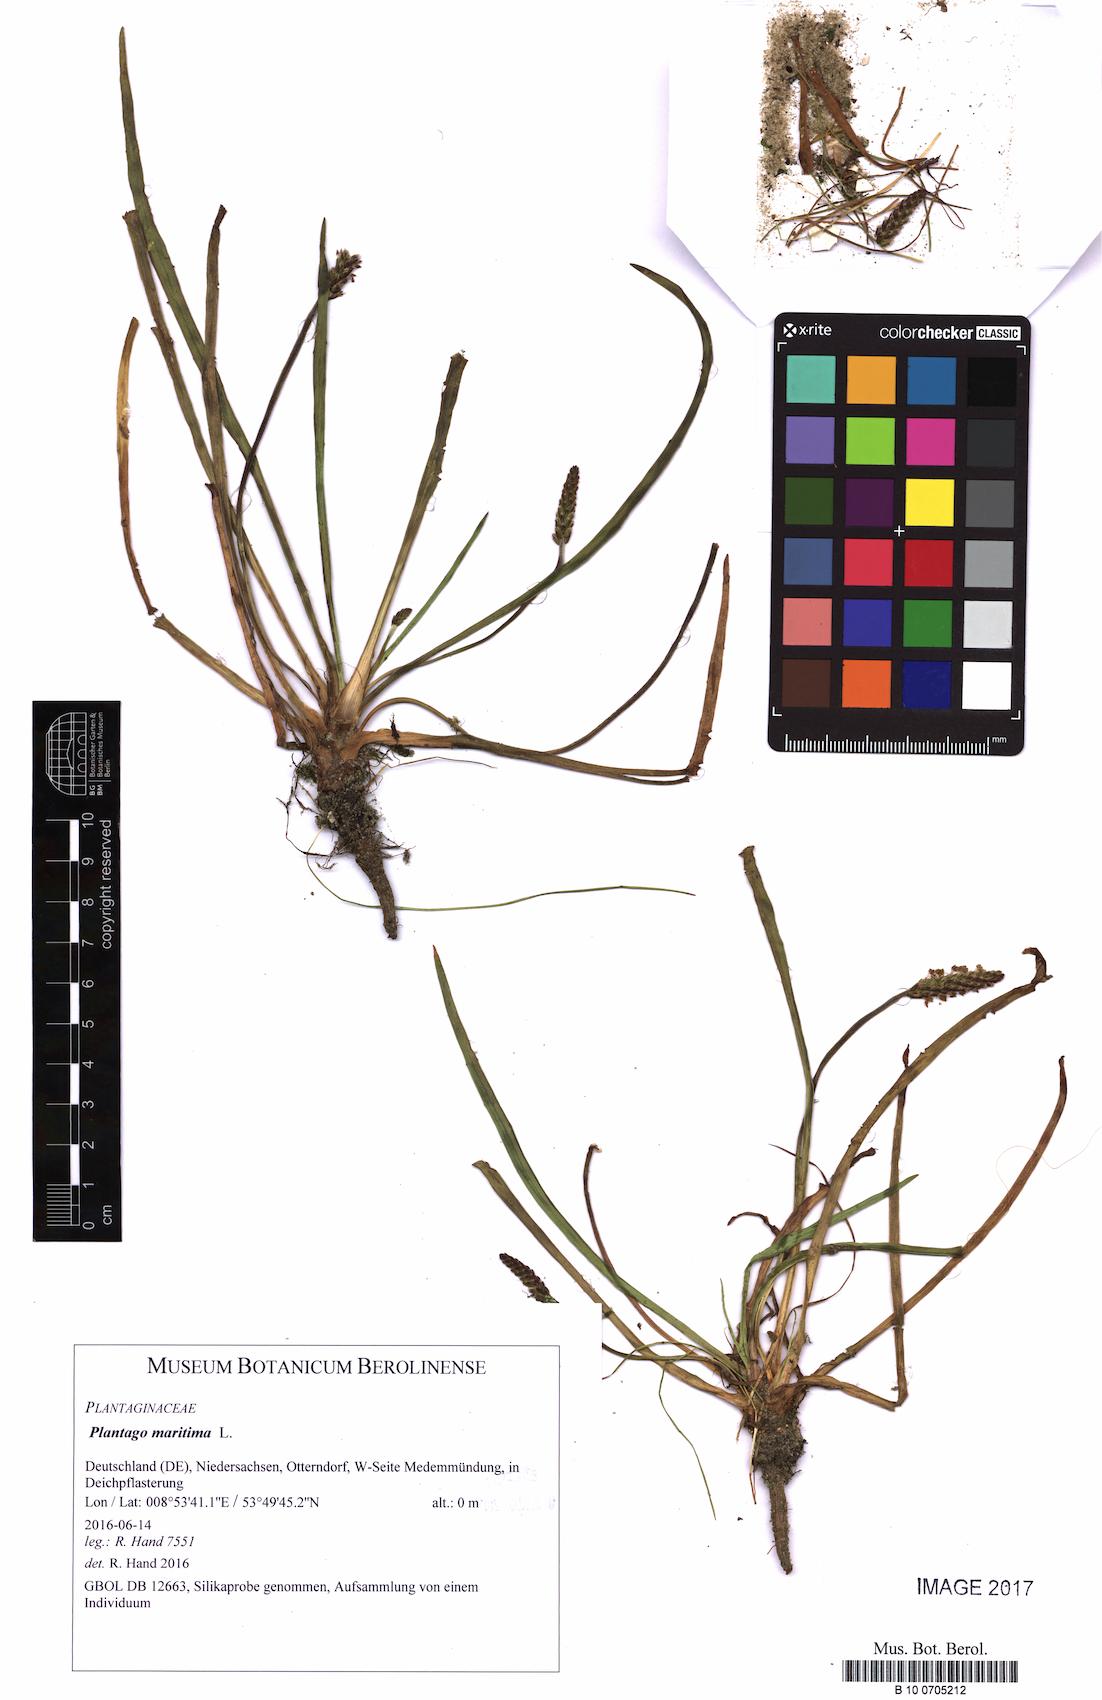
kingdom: Plantae
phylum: Tracheophyta
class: Magnoliopsida
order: Lamiales
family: Plantaginaceae
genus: Plantago
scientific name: Plantago maritima
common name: Sea plantain
